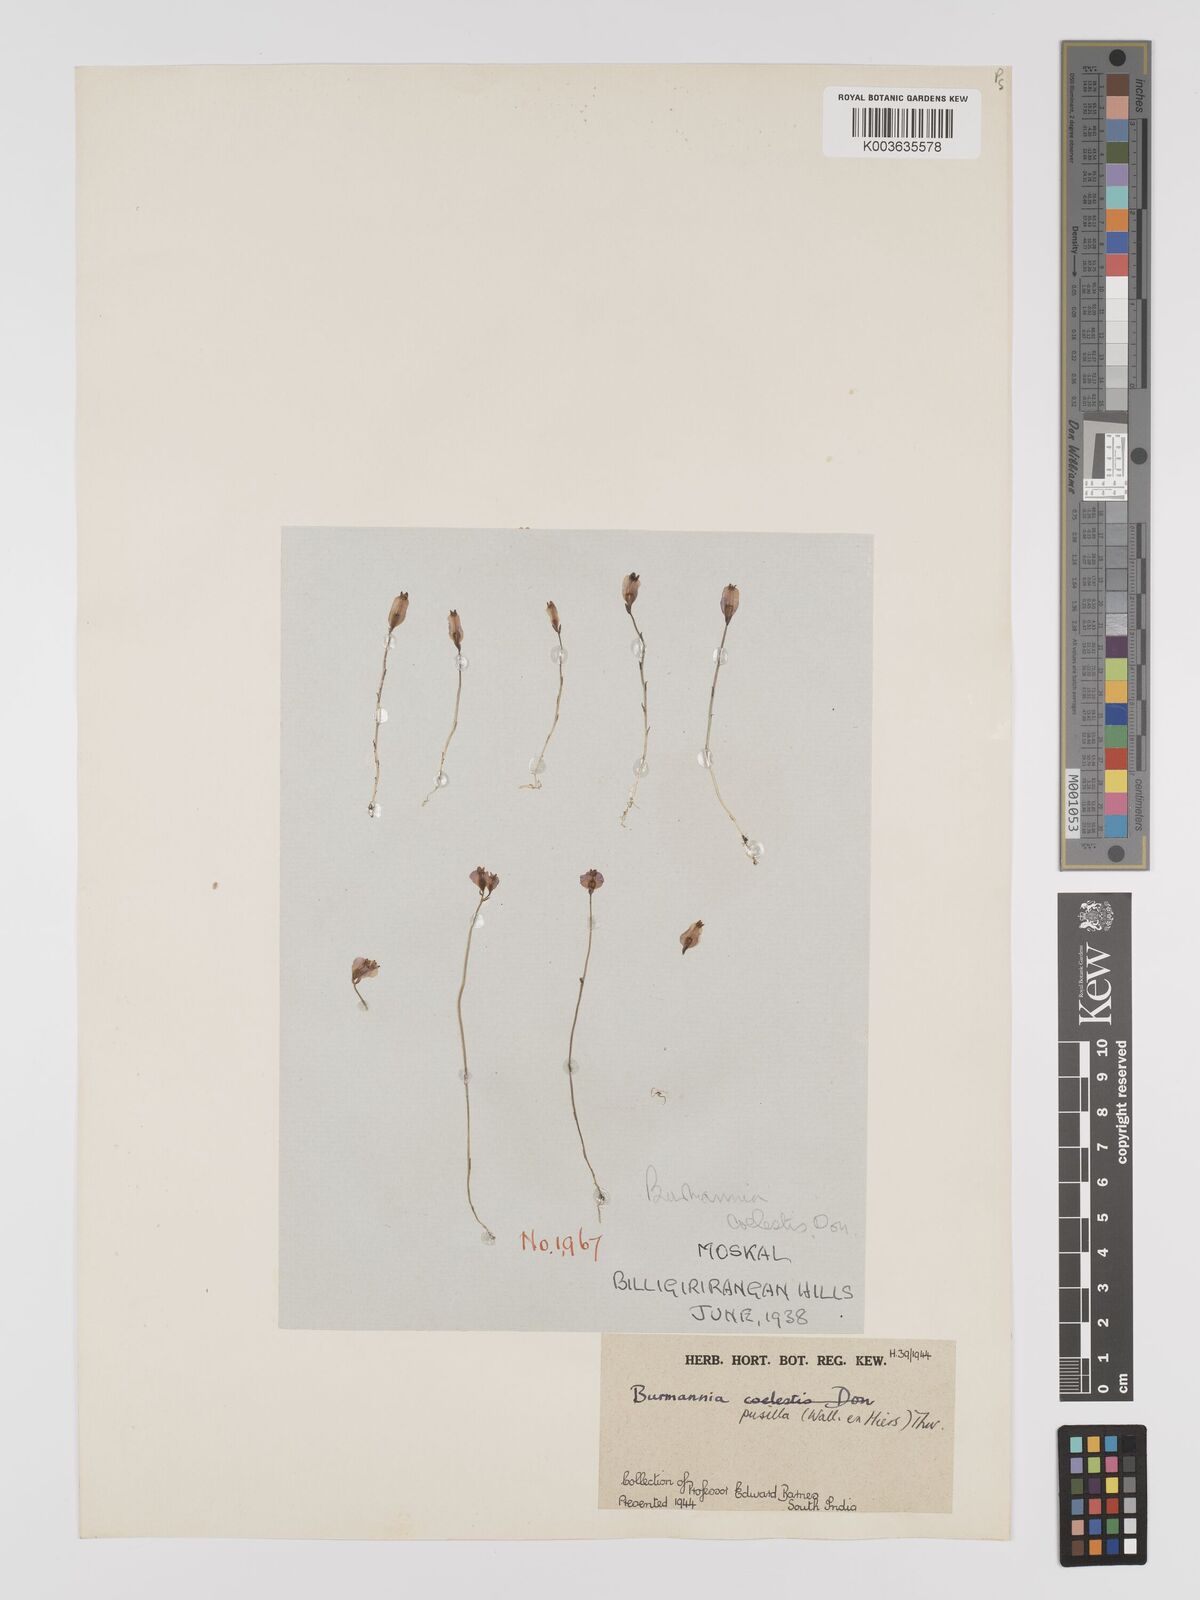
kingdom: Plantae
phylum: Tracheophyta
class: Liliopsida
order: Dioscoreales
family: Burmanniaceae
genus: Burmannia
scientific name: Burmannia pusilla
